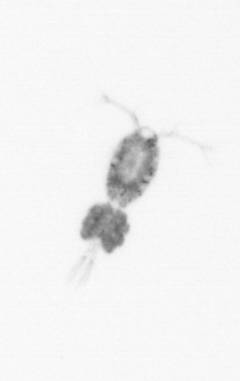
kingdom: Animalia
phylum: Arthropoda
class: Copepoda
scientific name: Copepoda
